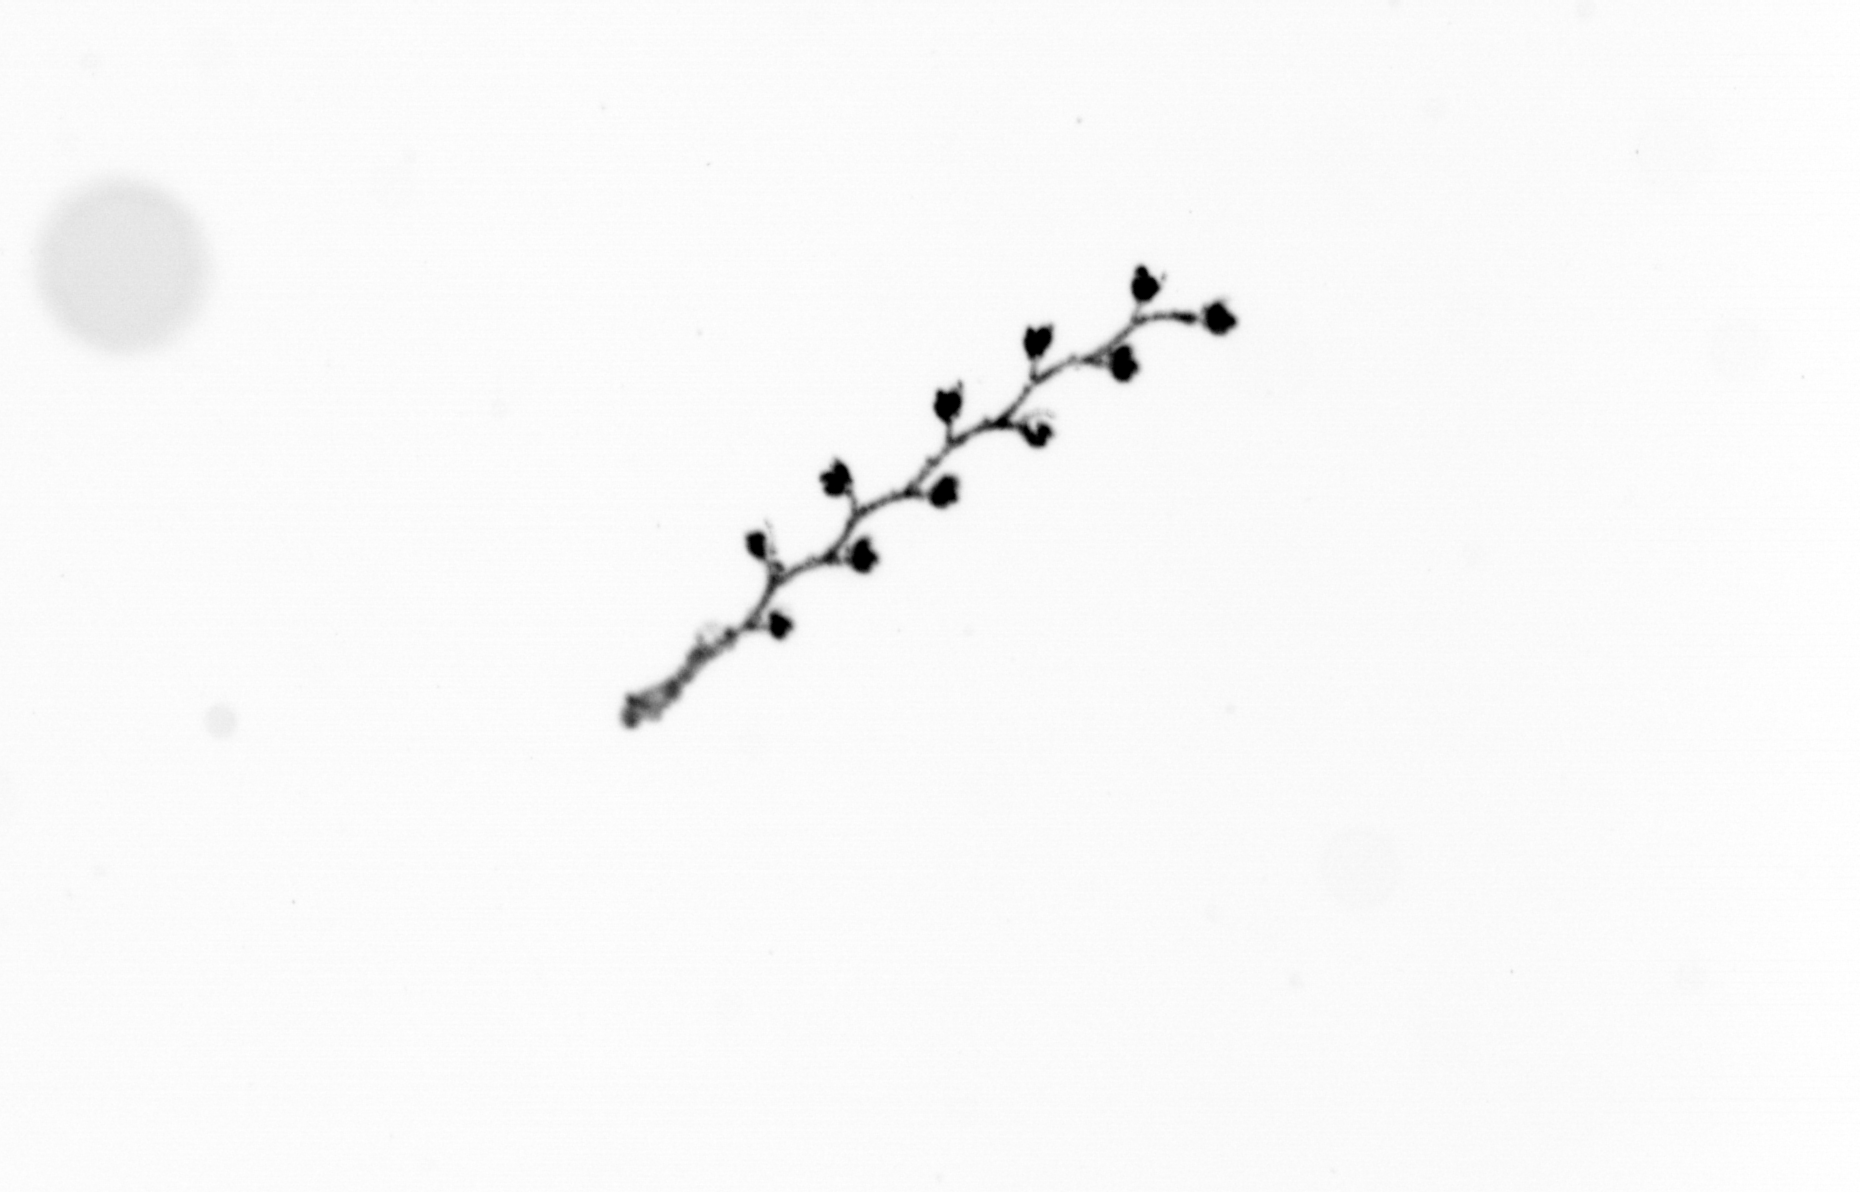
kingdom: Animalia
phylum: Cnidaria
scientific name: Cnidaria
